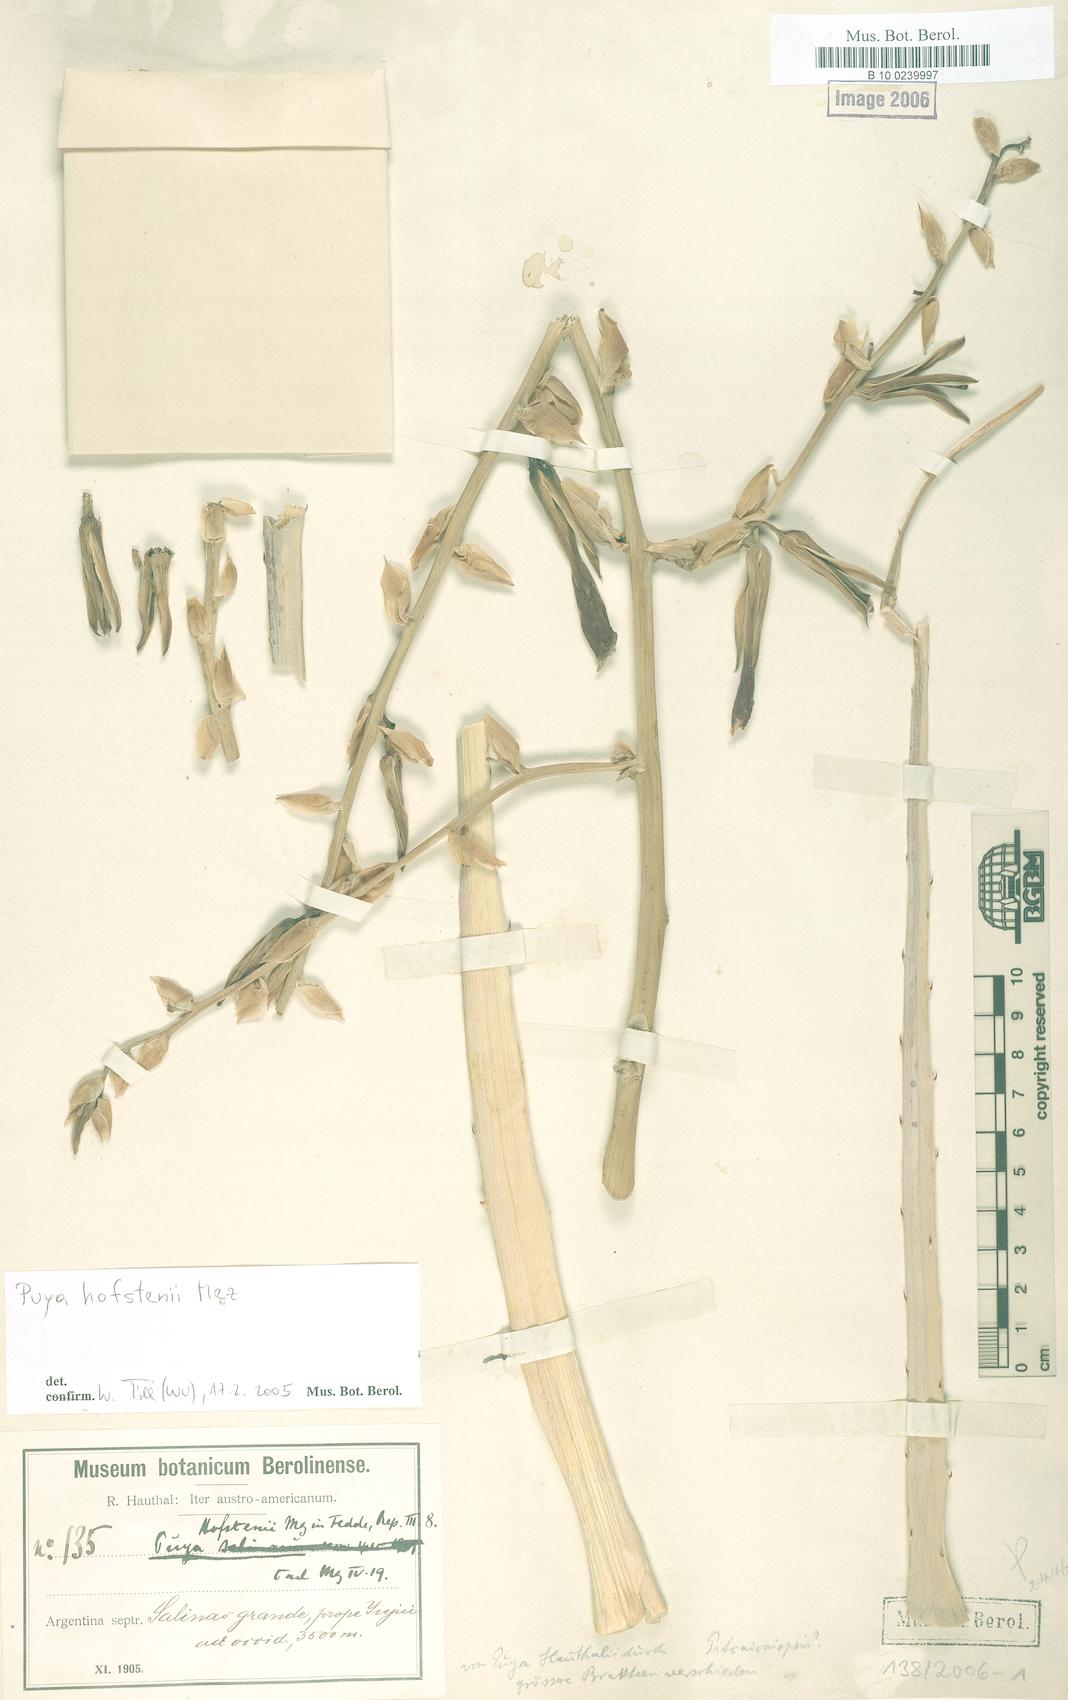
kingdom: Plantae
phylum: Tracheophyta
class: Liliopsida
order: Poales
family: Bromeliaceae
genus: Puya
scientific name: Puya hofstenii
